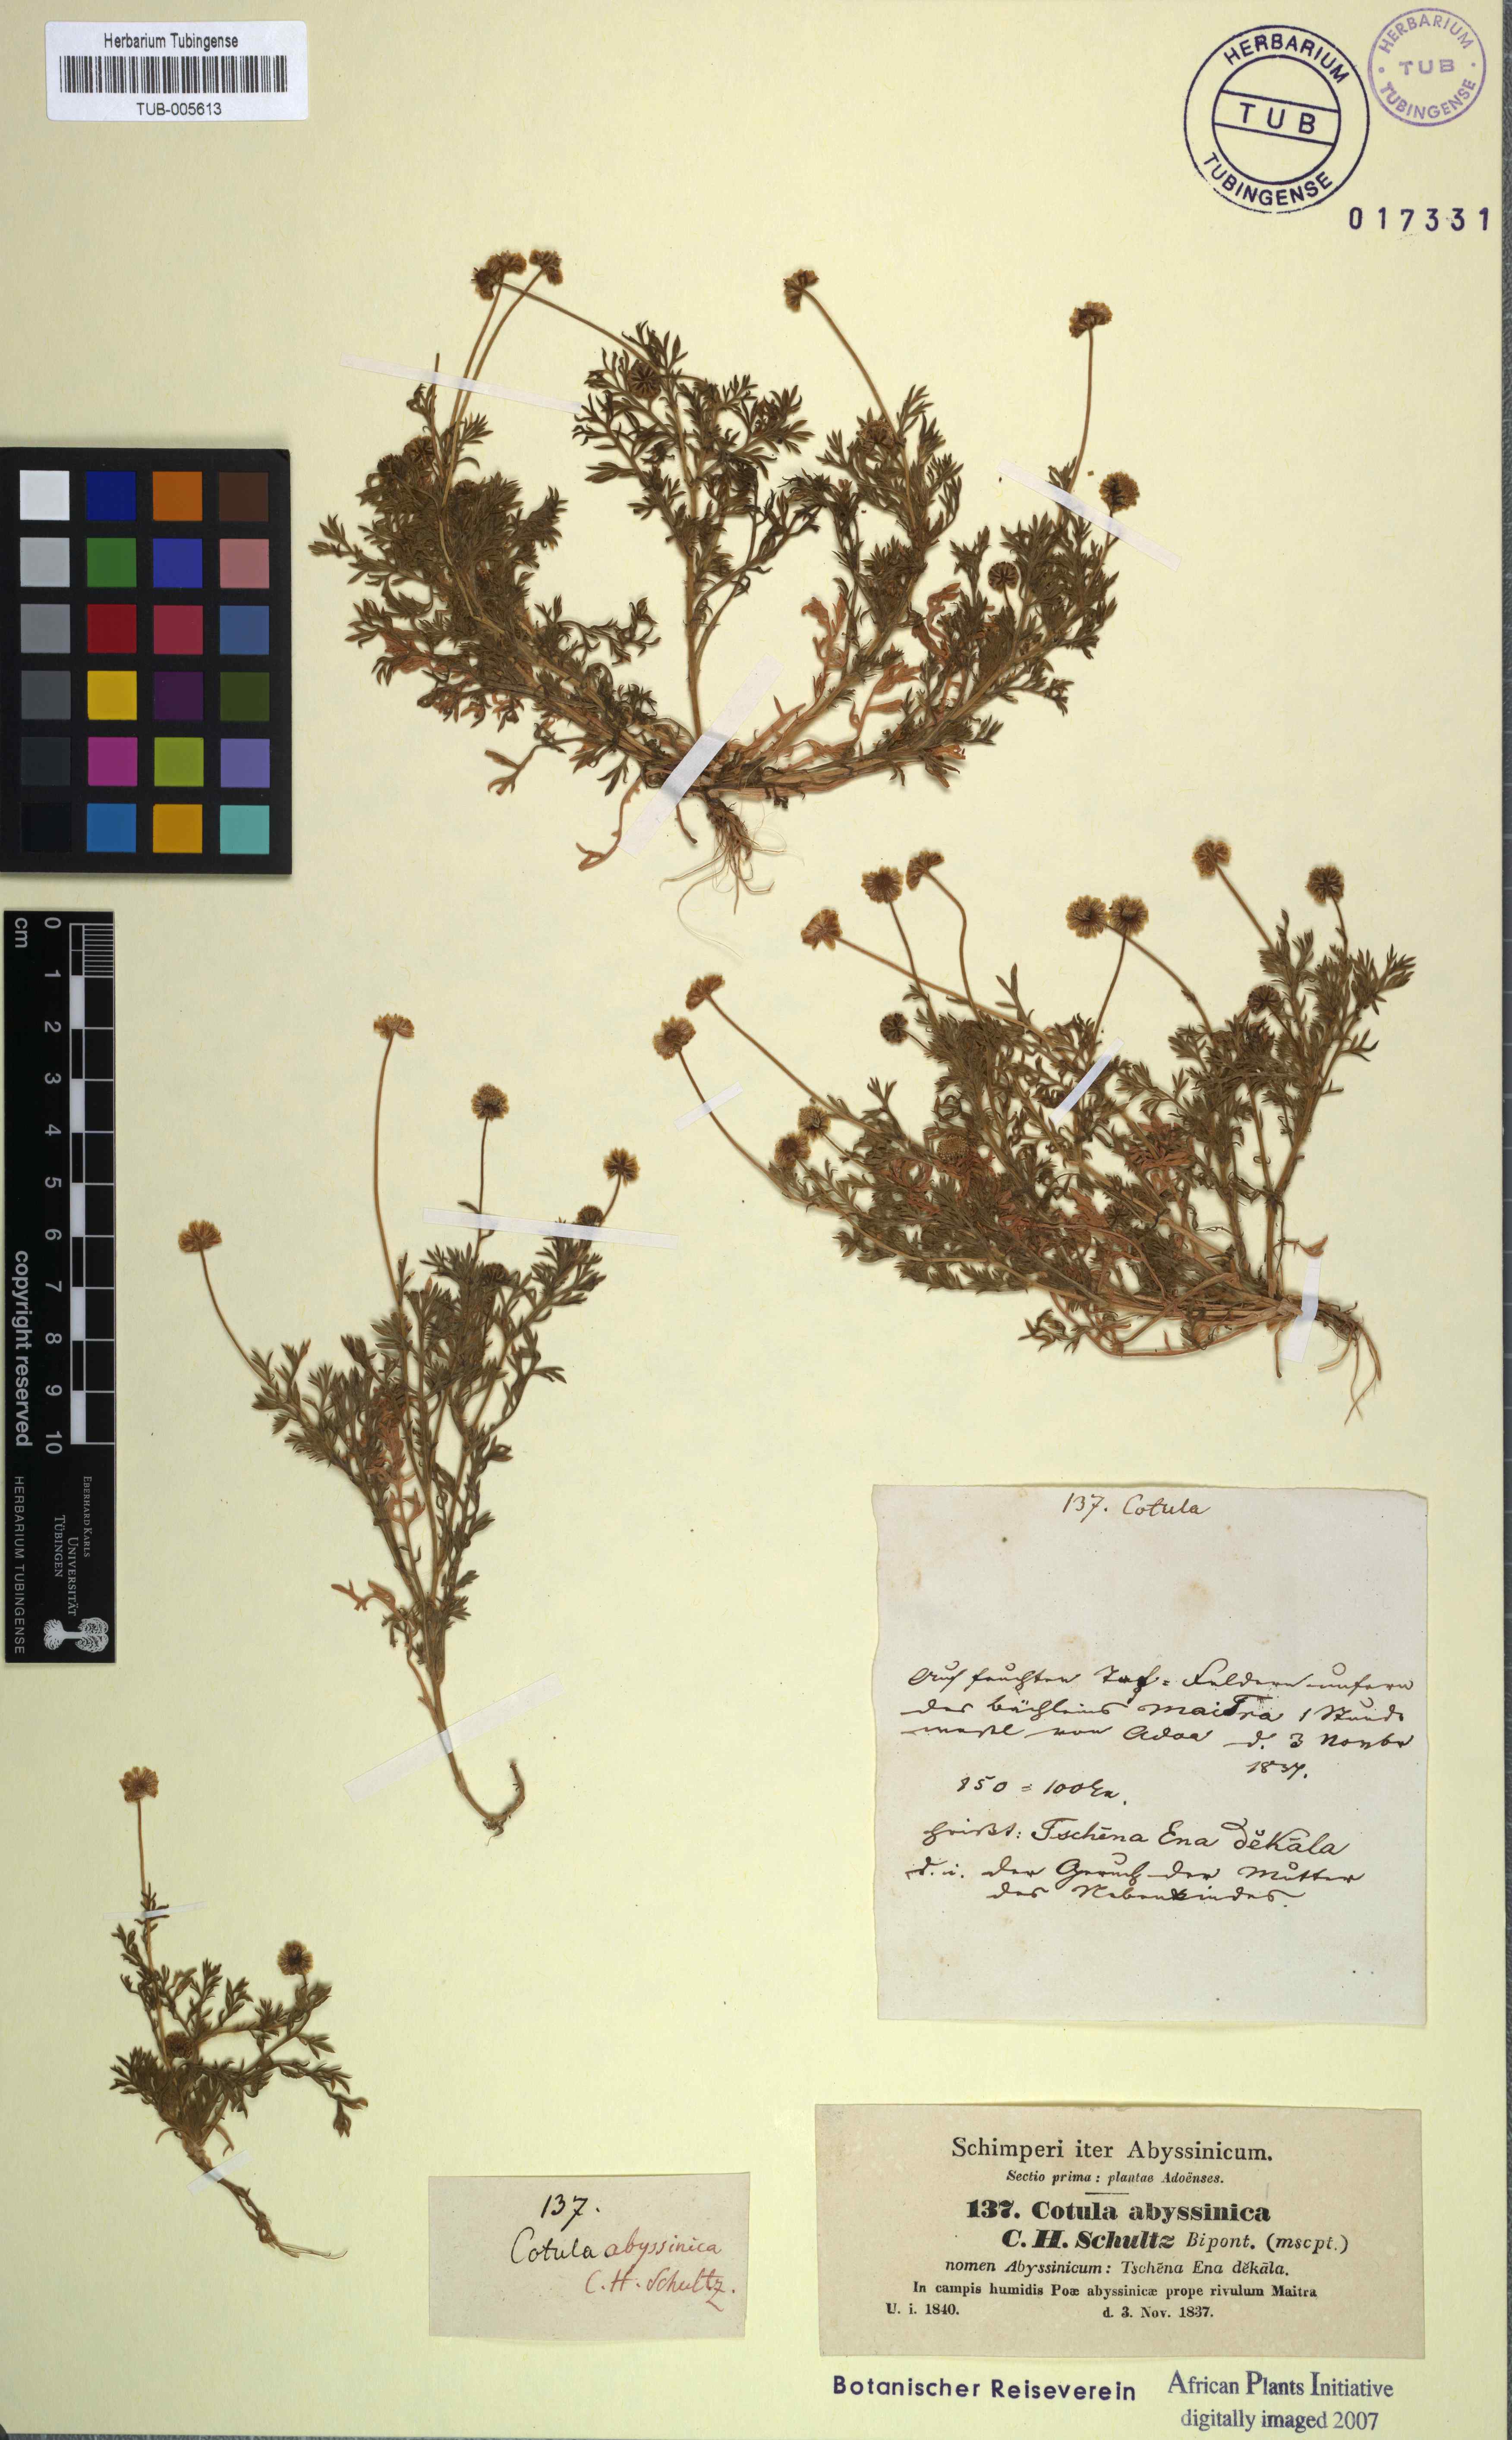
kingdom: Plantae
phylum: Tracheophyta
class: Magnoliopsida
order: Asterales
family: Asteraceae
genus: Cotula
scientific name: Cotula abyssinica
